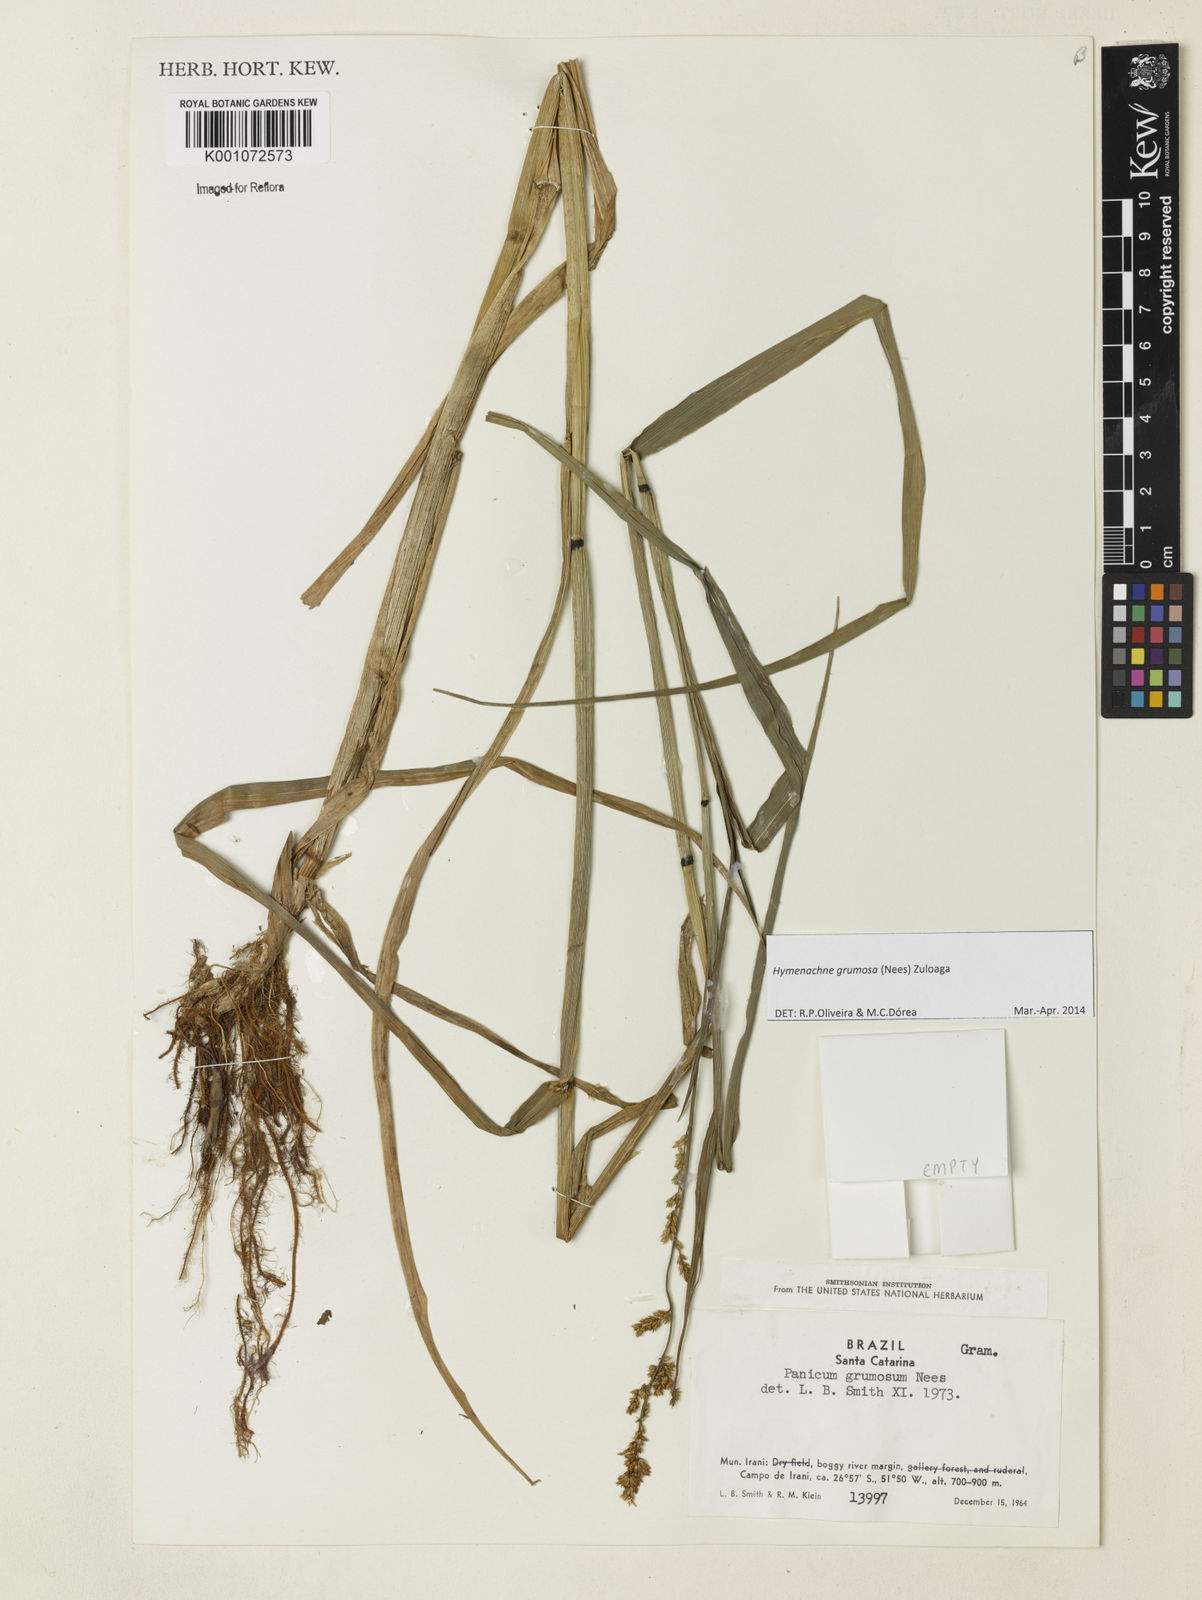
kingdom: Plantae
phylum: Tracheophyta
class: Liliopsida
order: Poales
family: Poaceae
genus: Hymenachne
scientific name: Hymenachne grumosa
